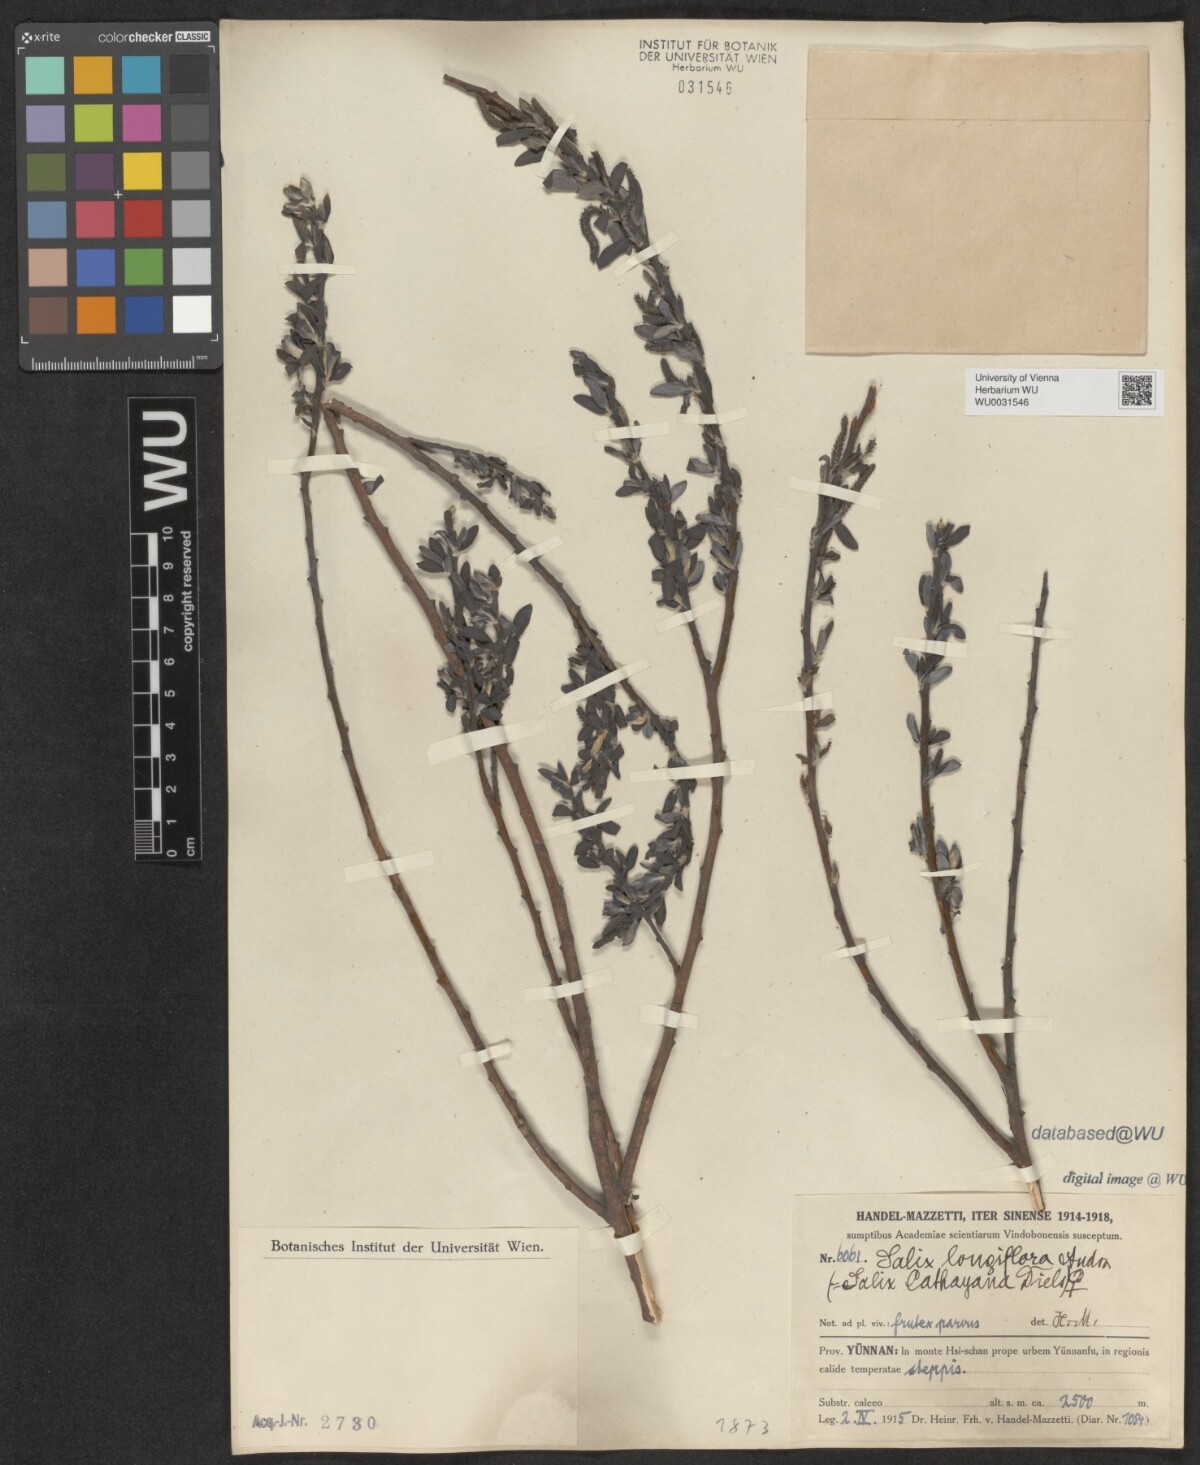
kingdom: Plantae
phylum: Tracheophyta
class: Magnoliopsida
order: Malpighiales
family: Salicaceae
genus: Salix
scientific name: Salix longiflora
